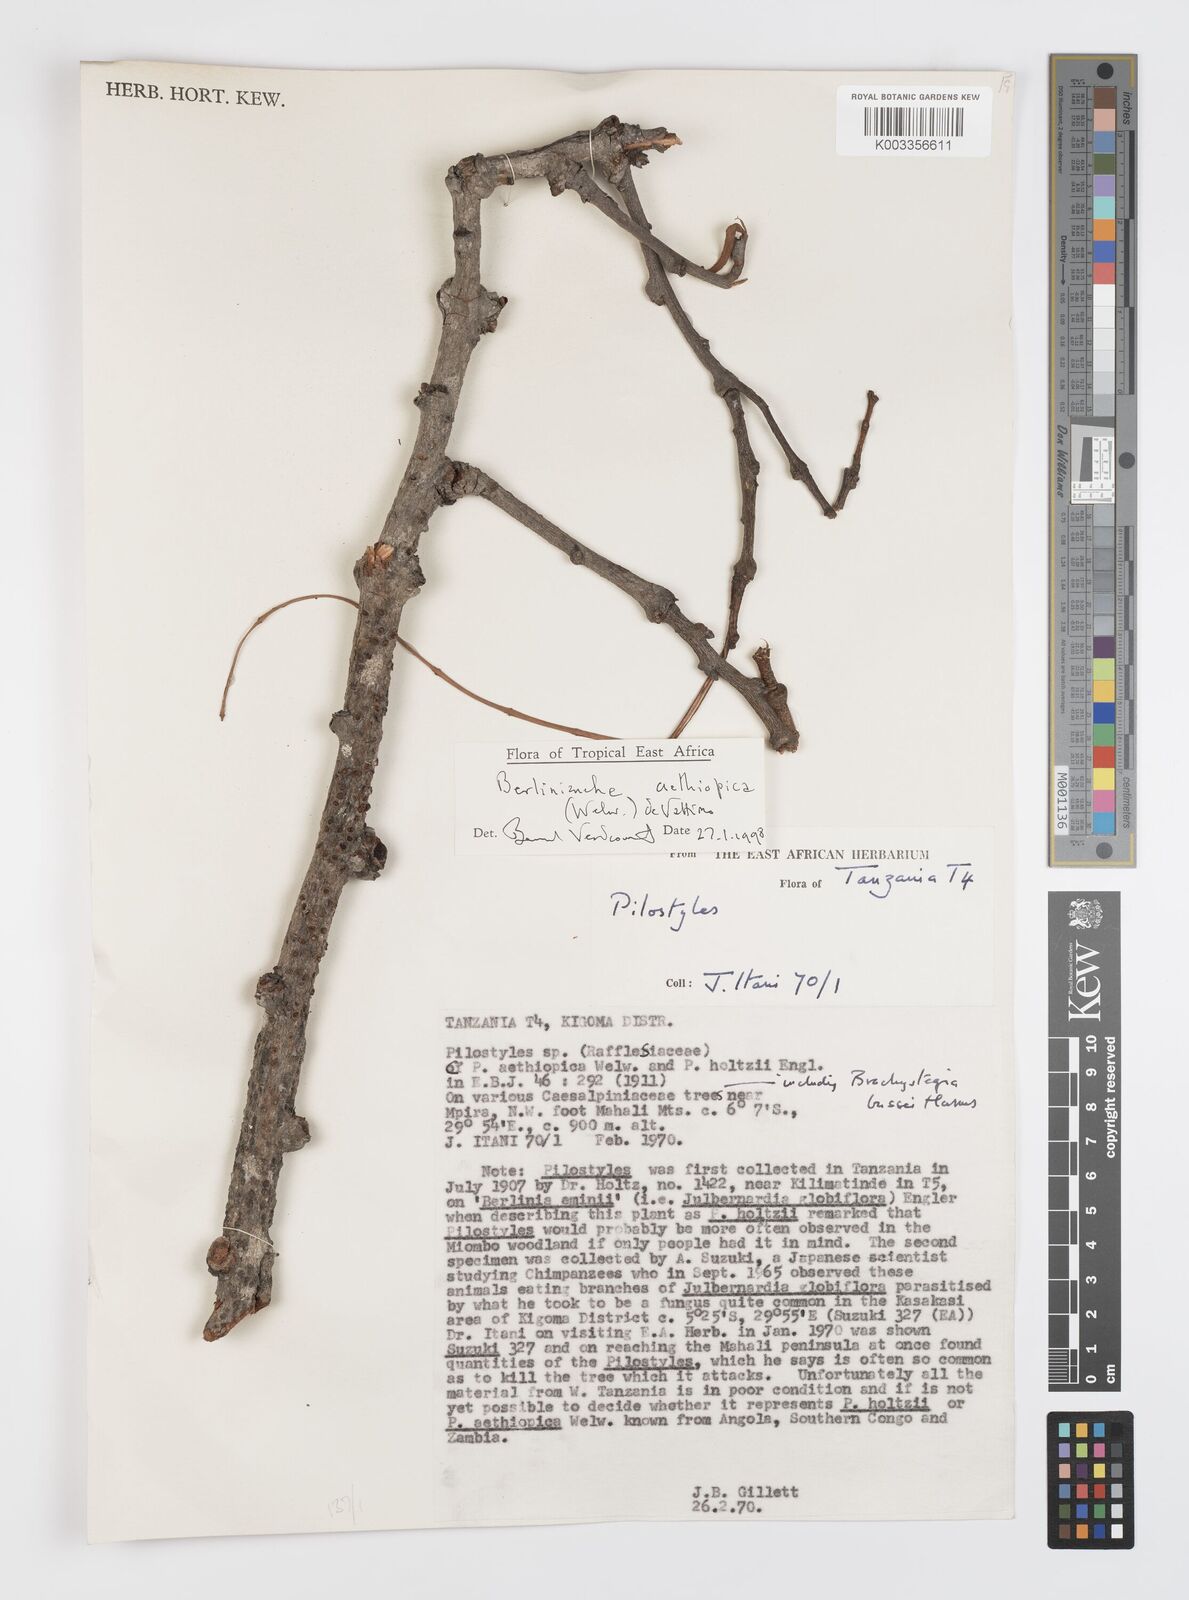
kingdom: Plantae
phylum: Tracheophyta
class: Magnoliopsida
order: Cucurbitales
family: Apodanthaceae
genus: Pilostyles
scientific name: Pilostyles aethiopica
